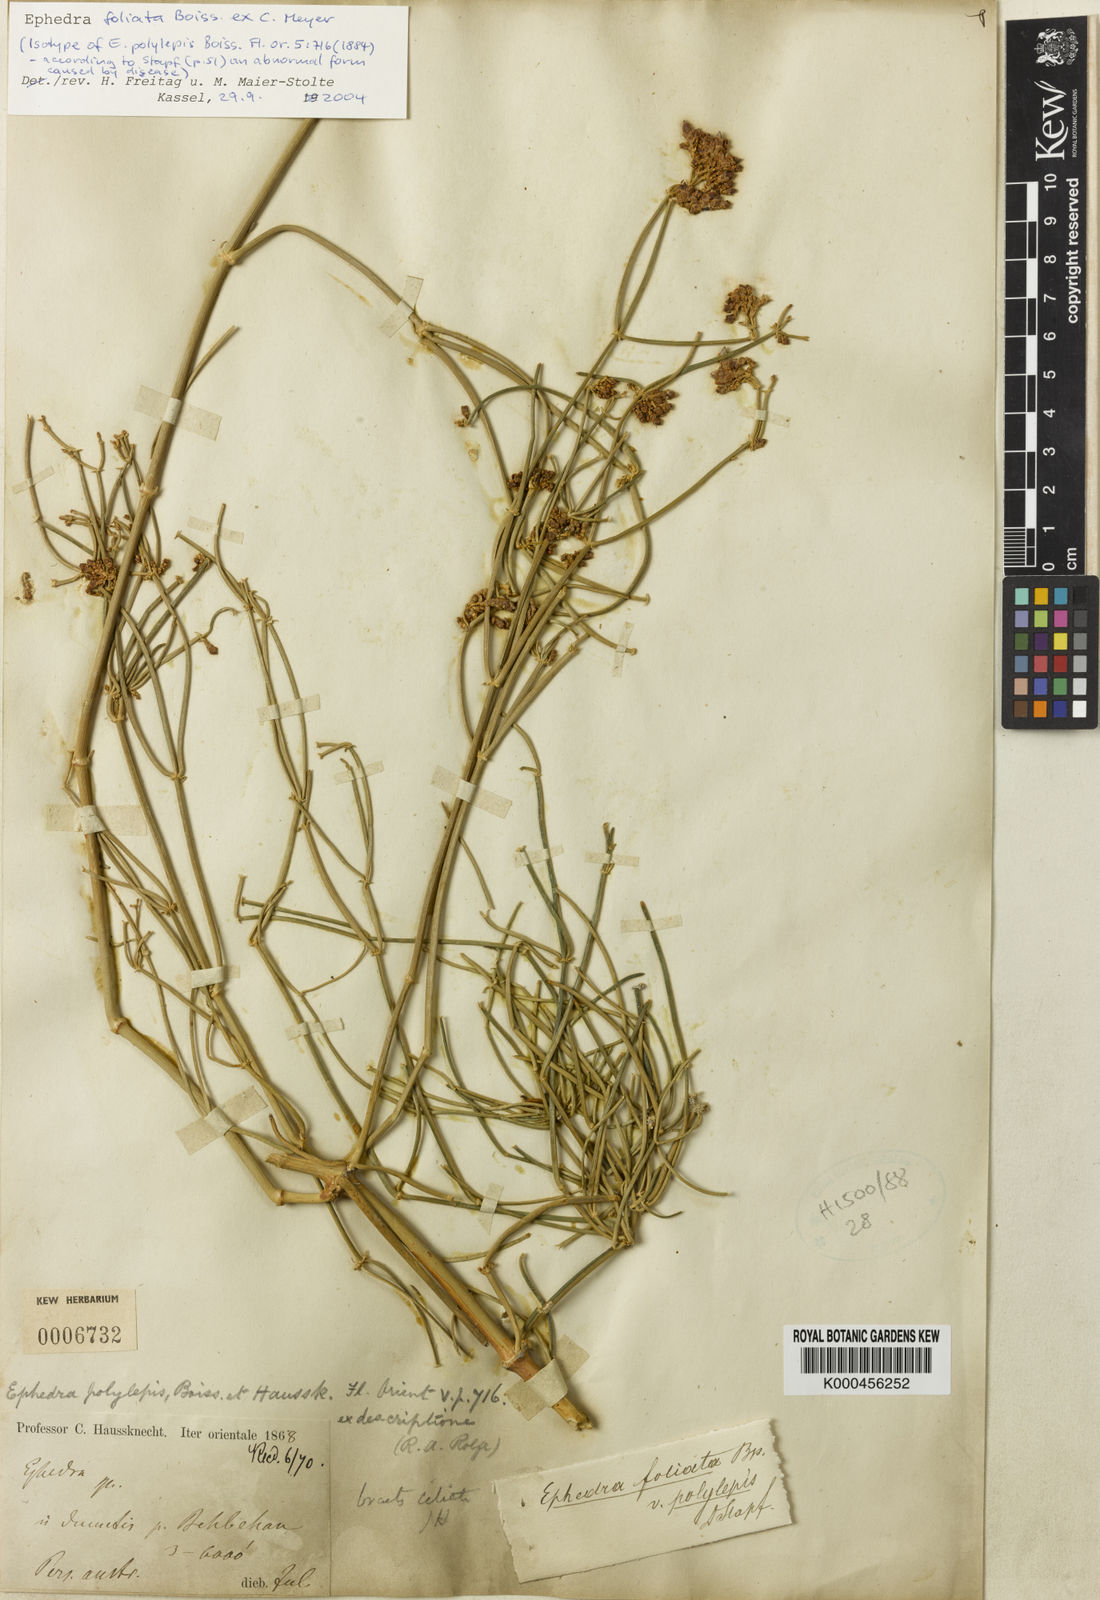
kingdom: Plantae
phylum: Tracheophyta
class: Gnetopsida
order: Ephedrales
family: Ephedraceae
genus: Ephedra
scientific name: Ephedra ciliata
